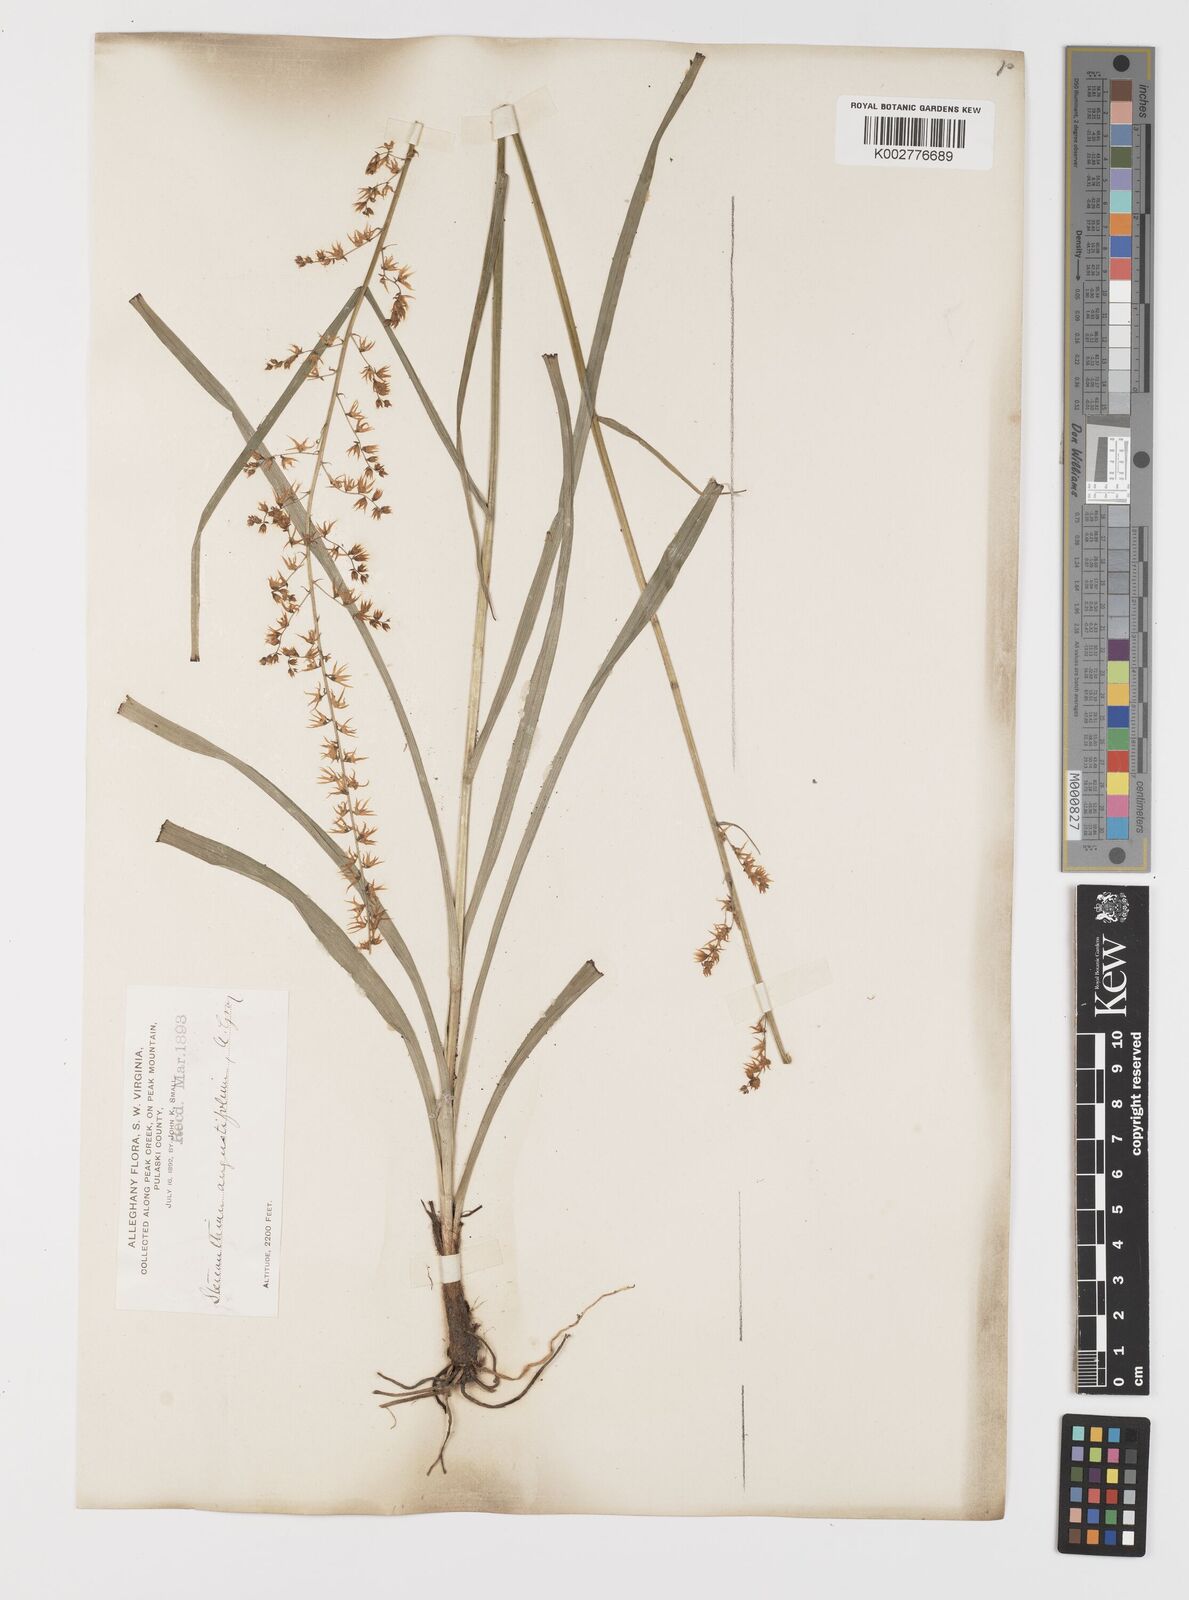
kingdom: Plantae
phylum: Tracheophyta
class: Liliopsida
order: Liliales
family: Melanthiaceae
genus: Stenanthium
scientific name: Stenanthium gramineum
